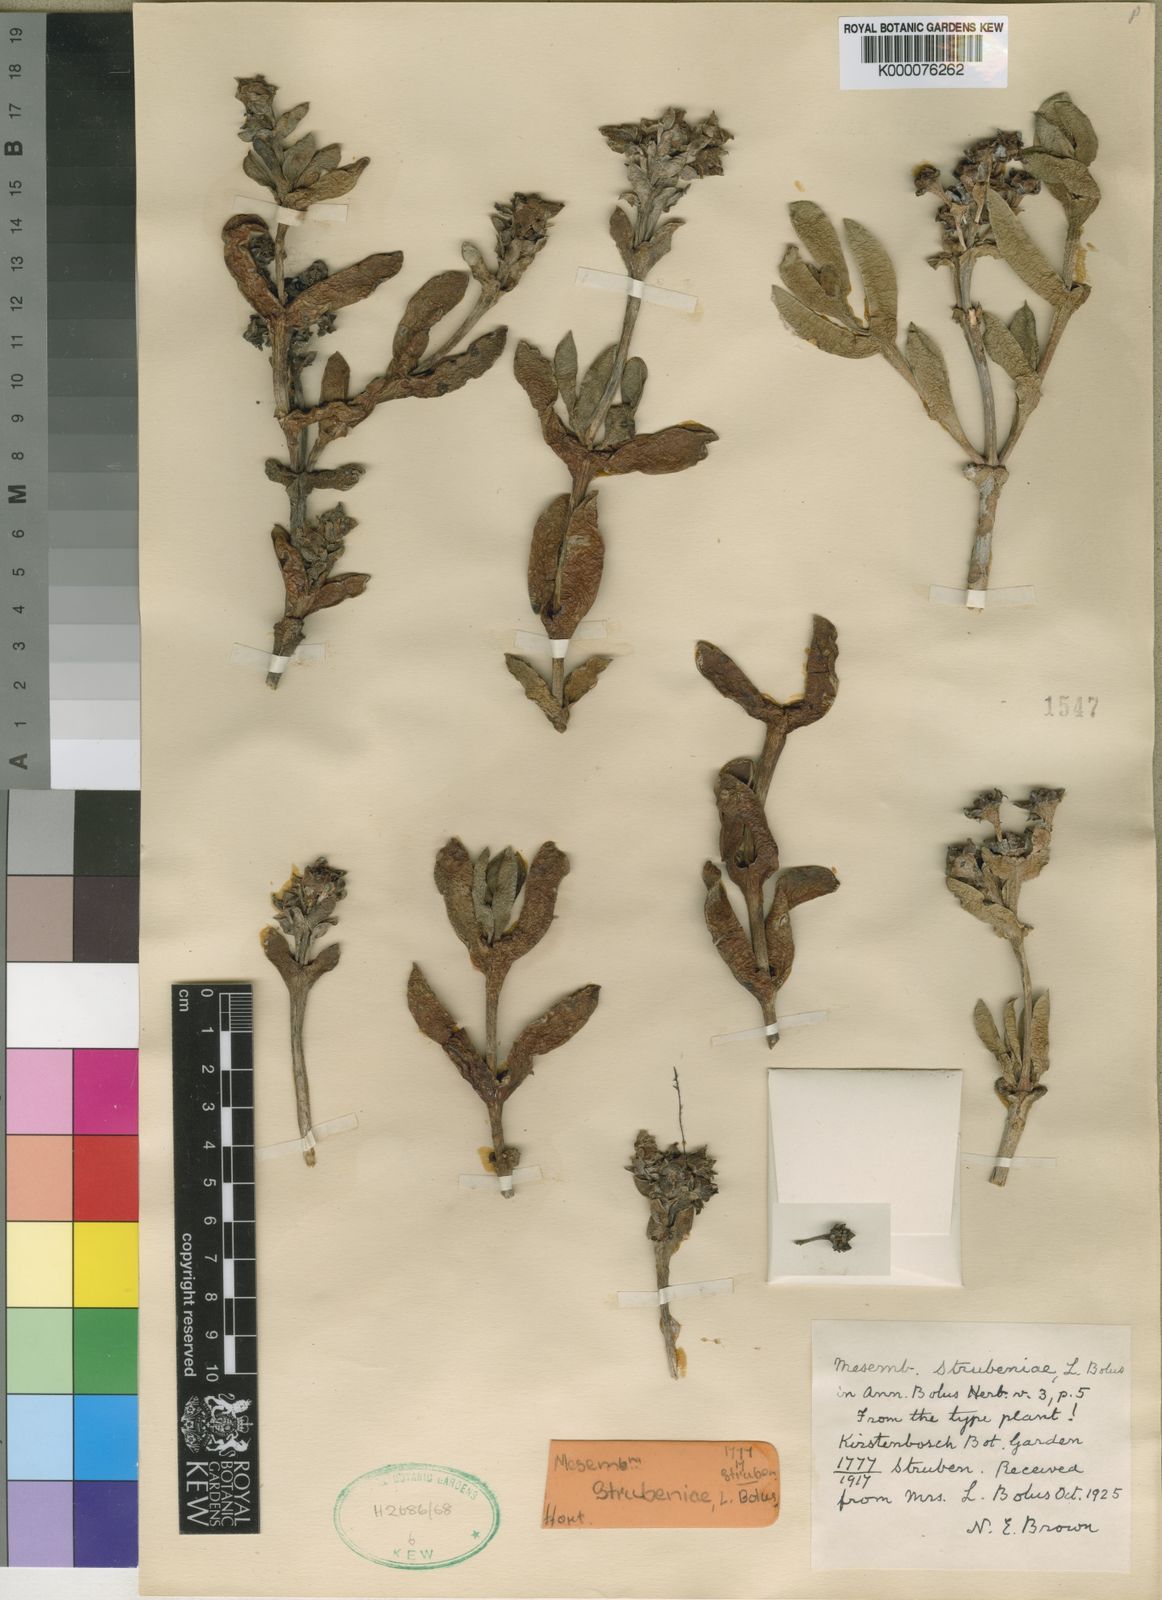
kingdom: Plantae
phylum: Tracheophyta
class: Magnoliopsida
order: Caryophyllales
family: Aizoaceae
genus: Ruschia
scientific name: Ruschia strubeniae
